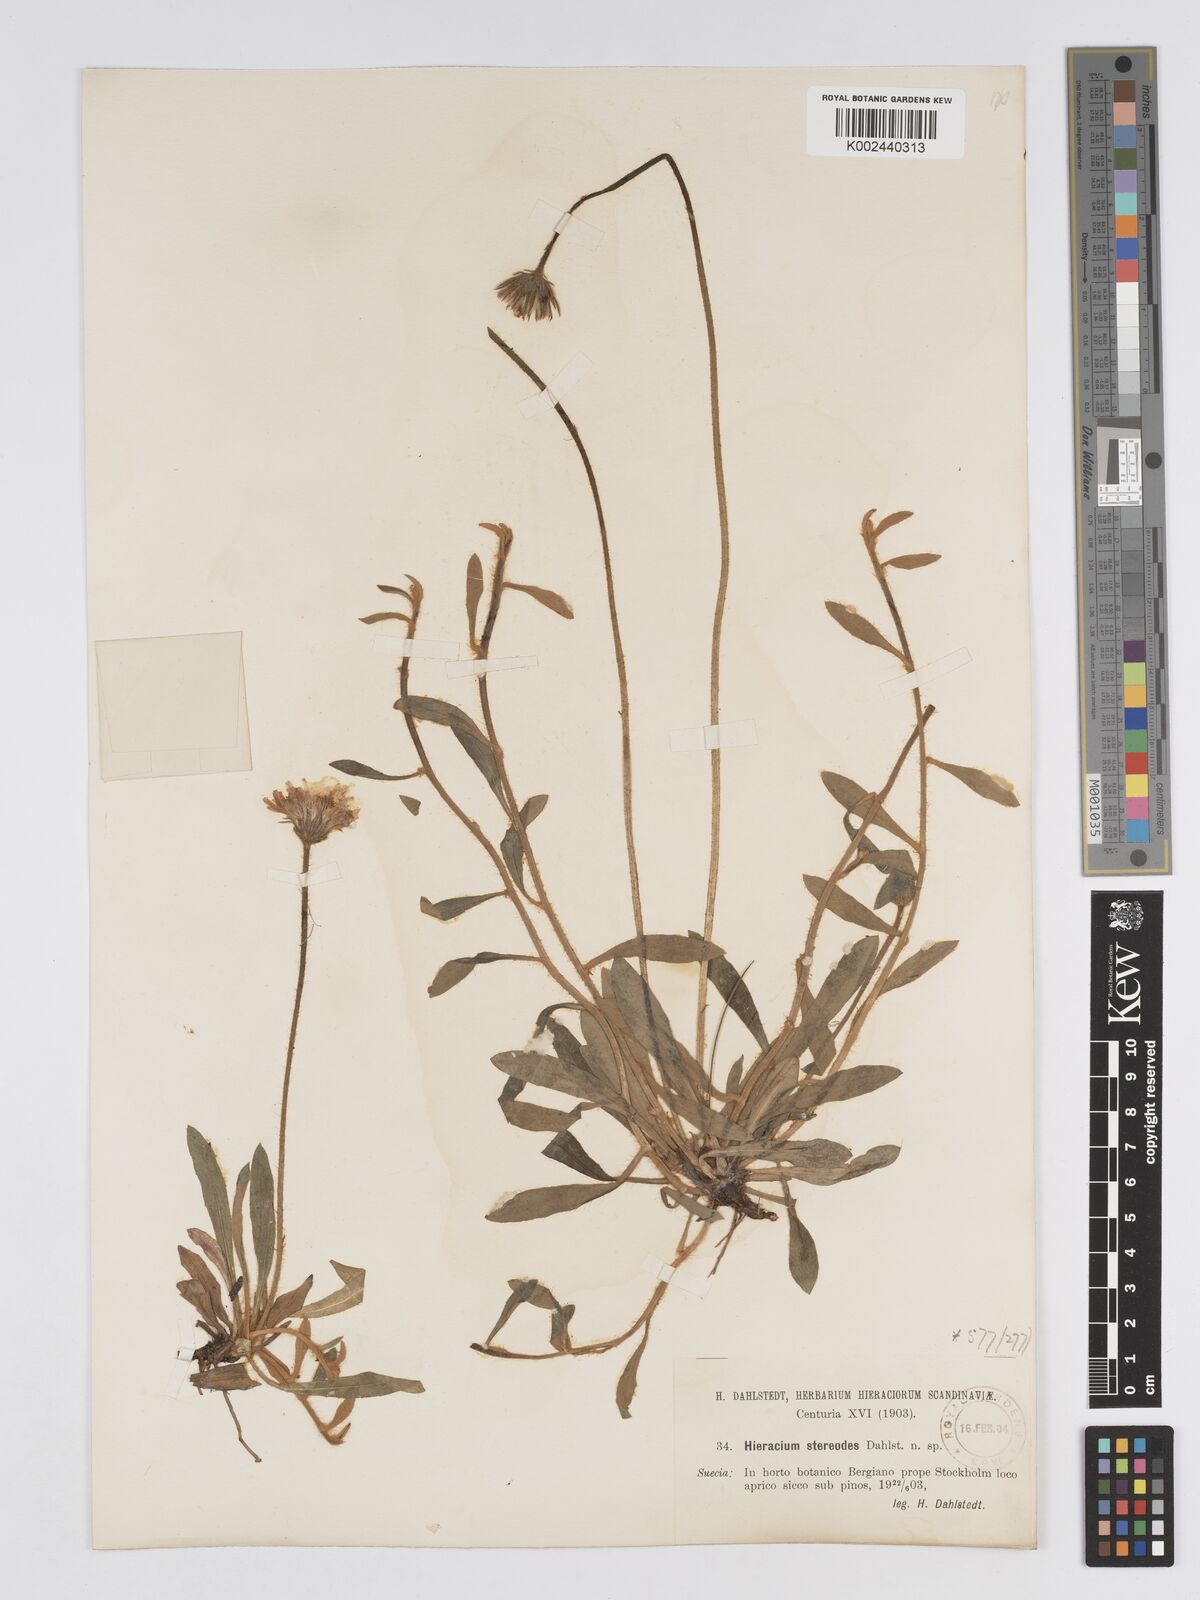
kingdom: Plantae
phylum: Tracheophyta
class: Magnoliopsida
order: Asterales
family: Asteraceae
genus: Pilosella
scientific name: Pilosella officinarum
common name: Mouse-ear hawkweed
